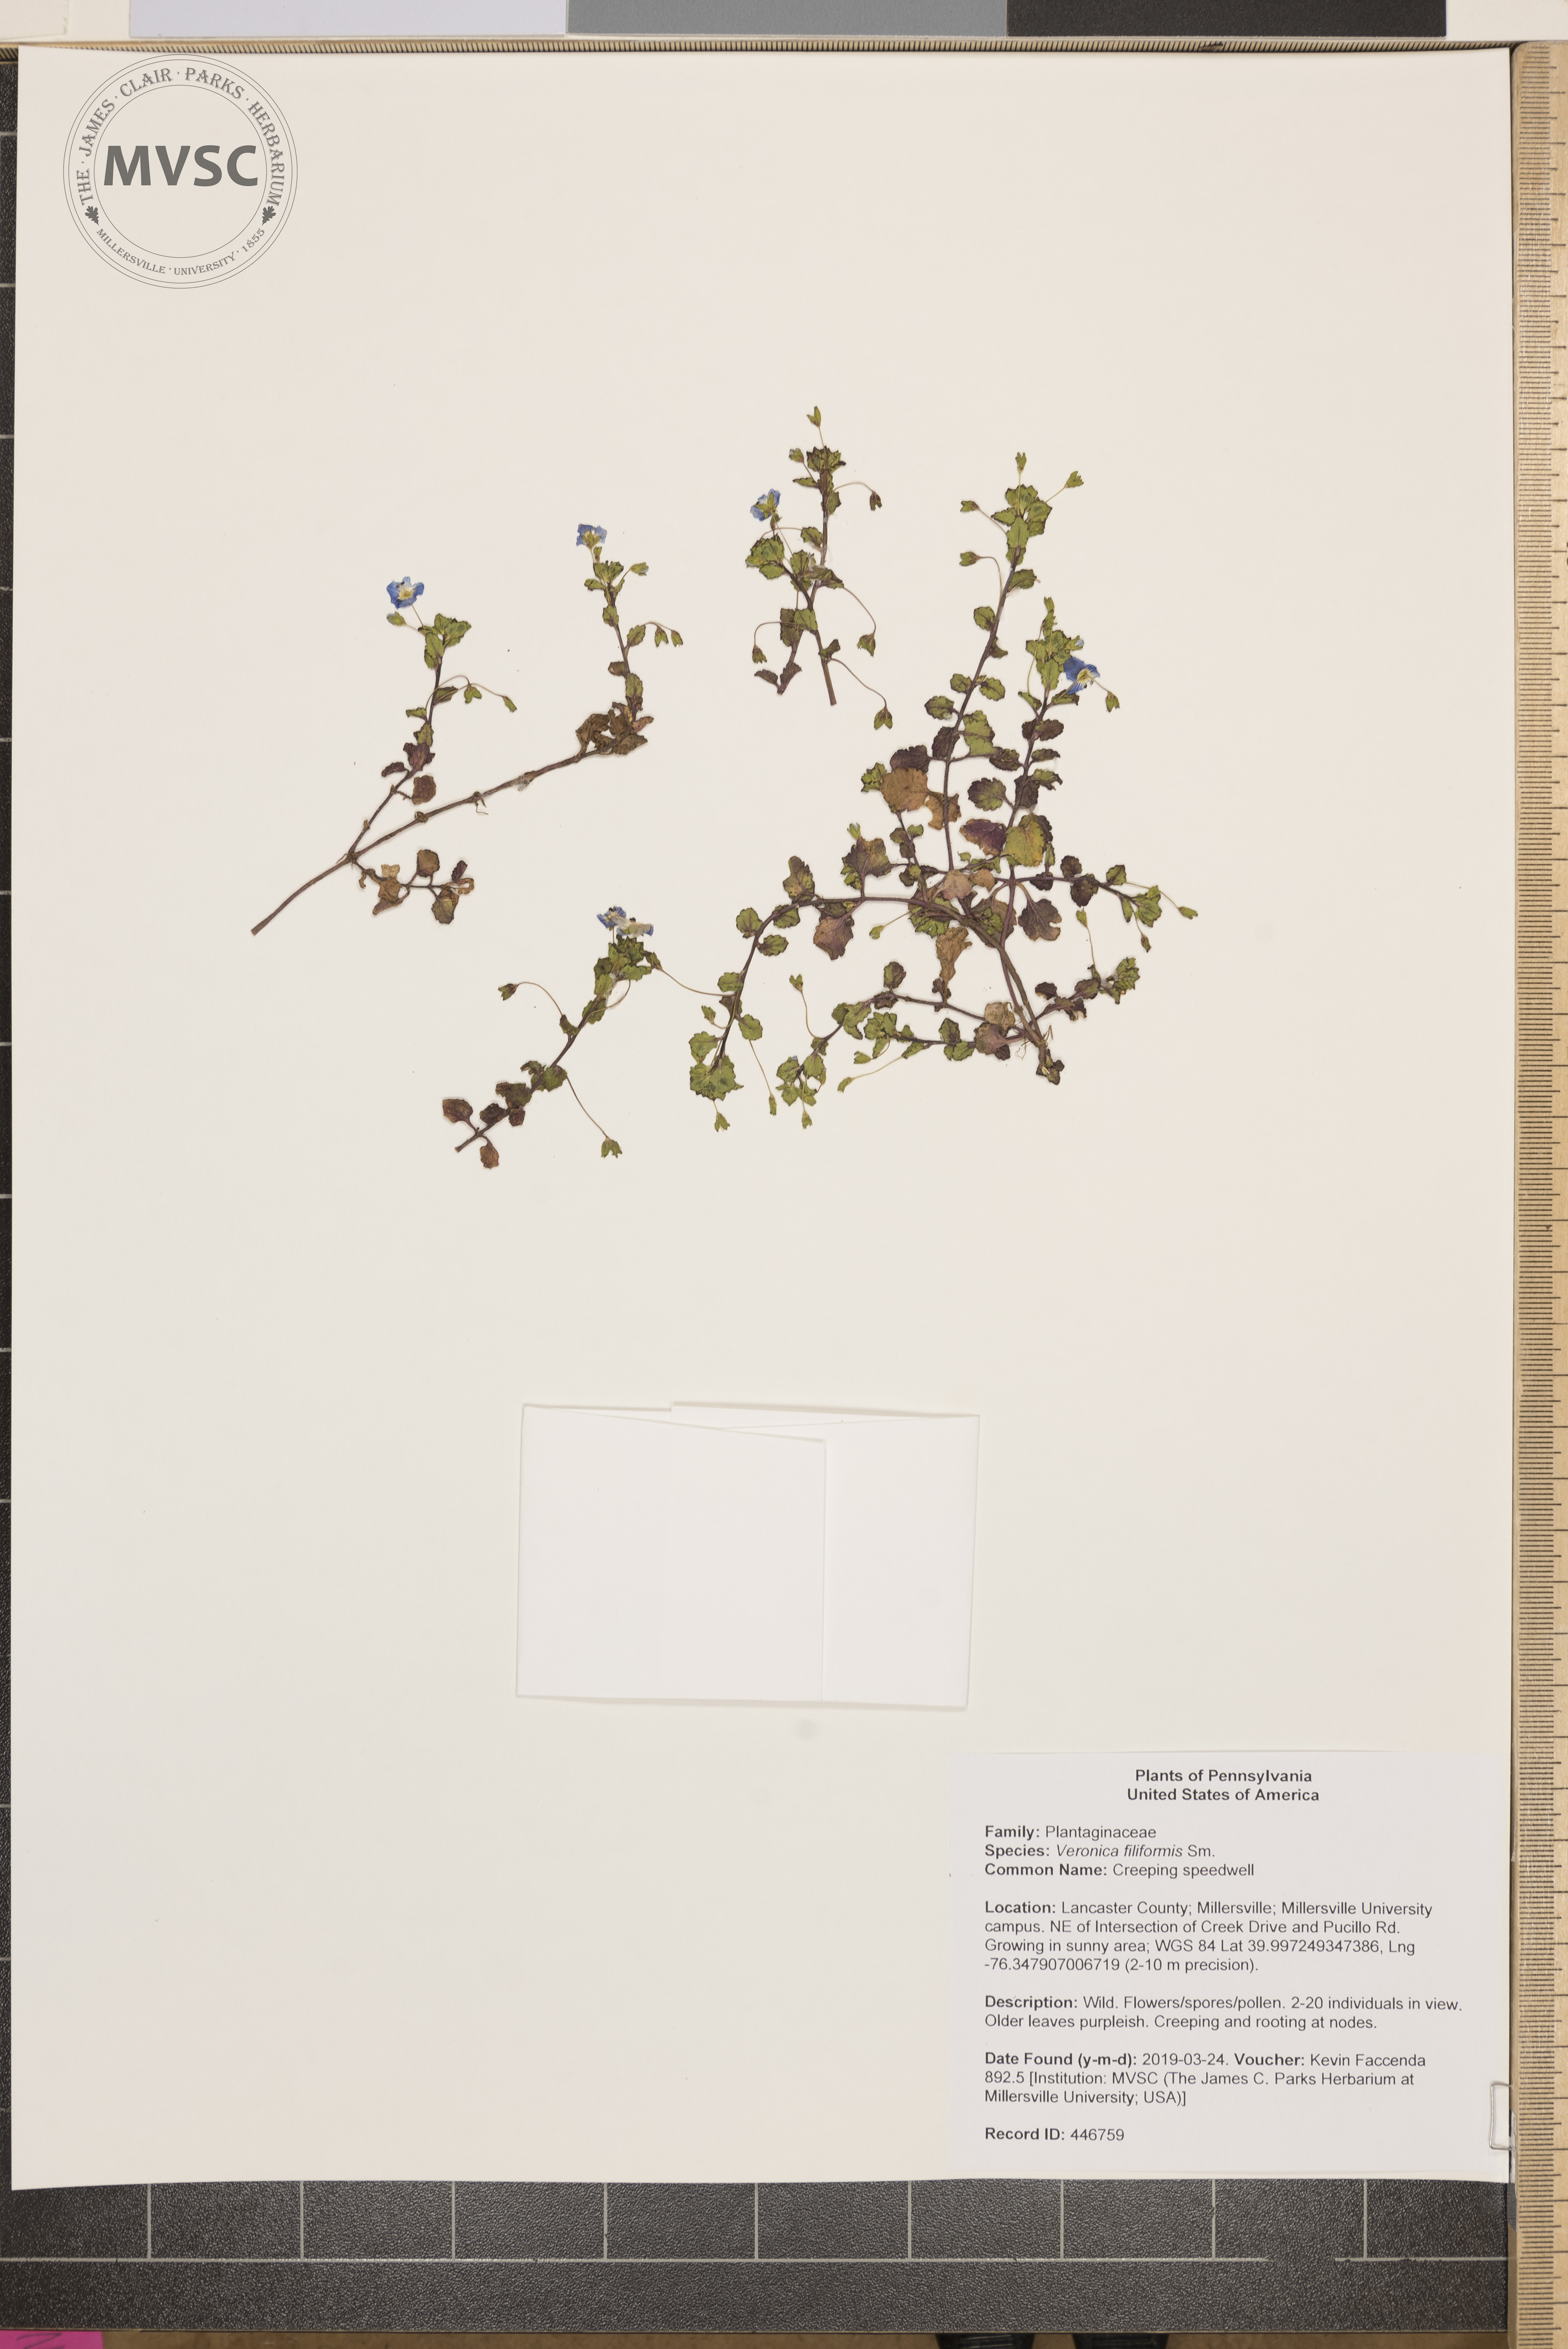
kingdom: Plantae
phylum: Tracheophyta
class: Magnoliopsida
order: Lamiales
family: Plantaginaceae
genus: Veronica
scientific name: Veronica filiformis
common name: Creeping speedwell
